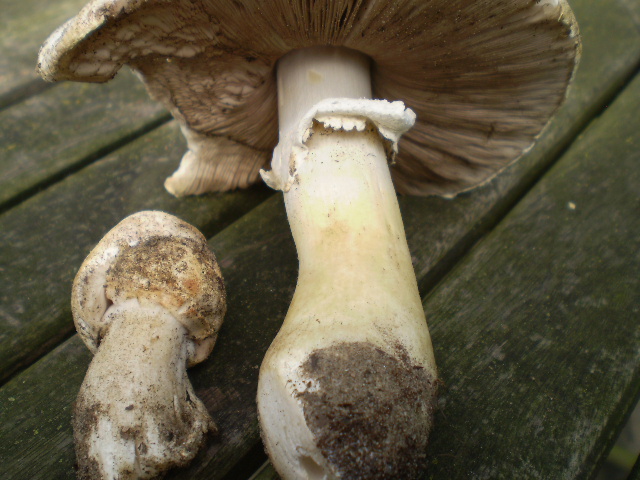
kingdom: Fungi
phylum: Basidiomycota
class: Agaricomycetes
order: Agaricales
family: Agaricaceae
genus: Agaricus
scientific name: Agaricus arvensis
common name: ager-champignon
